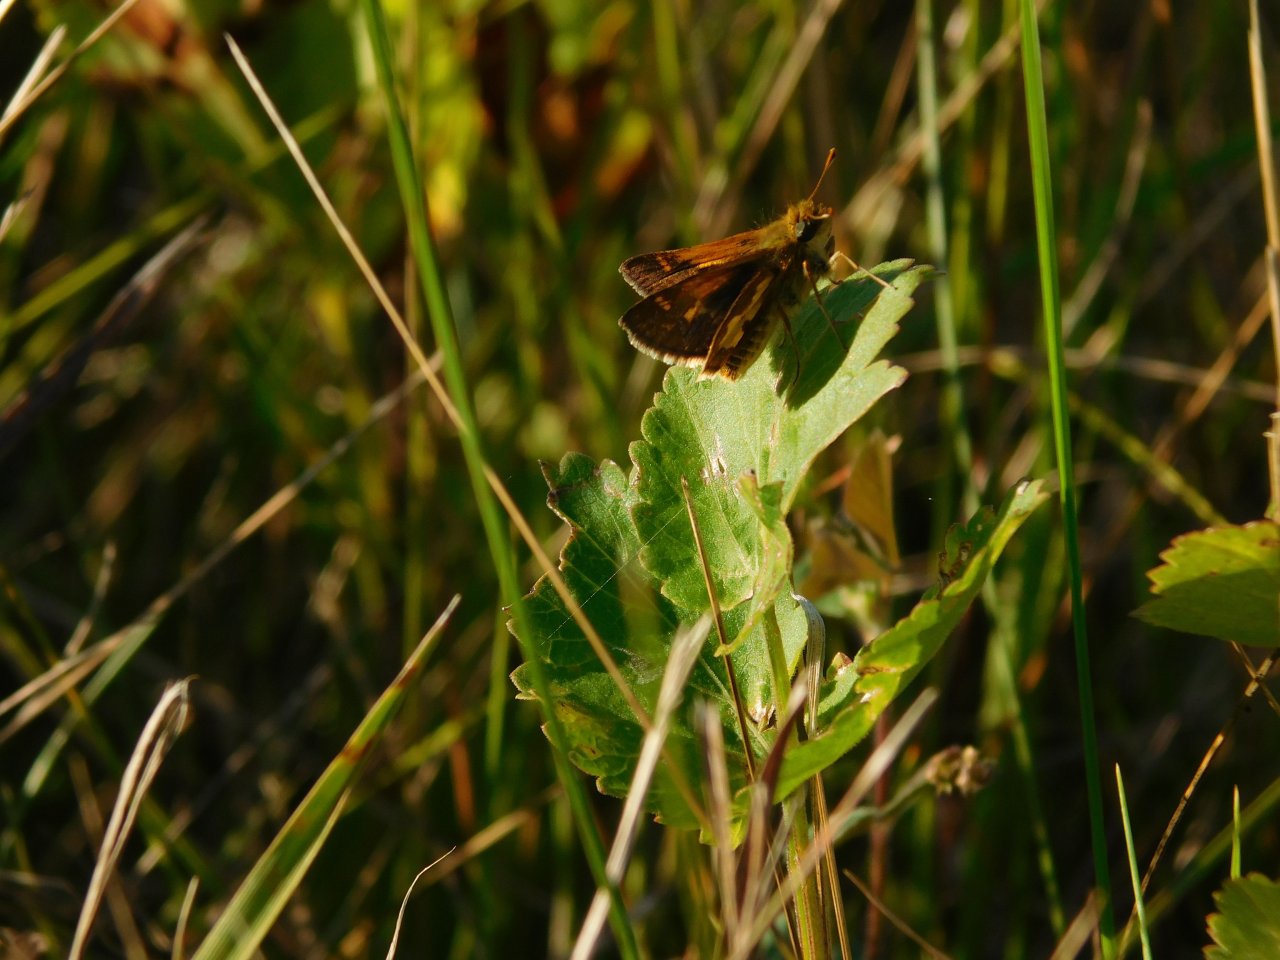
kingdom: Animalia
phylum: Arthropoda
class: Insecta
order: Lepidoptera
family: Hesperiidae
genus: Polites
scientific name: Polites coras
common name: Peck's Skipper
